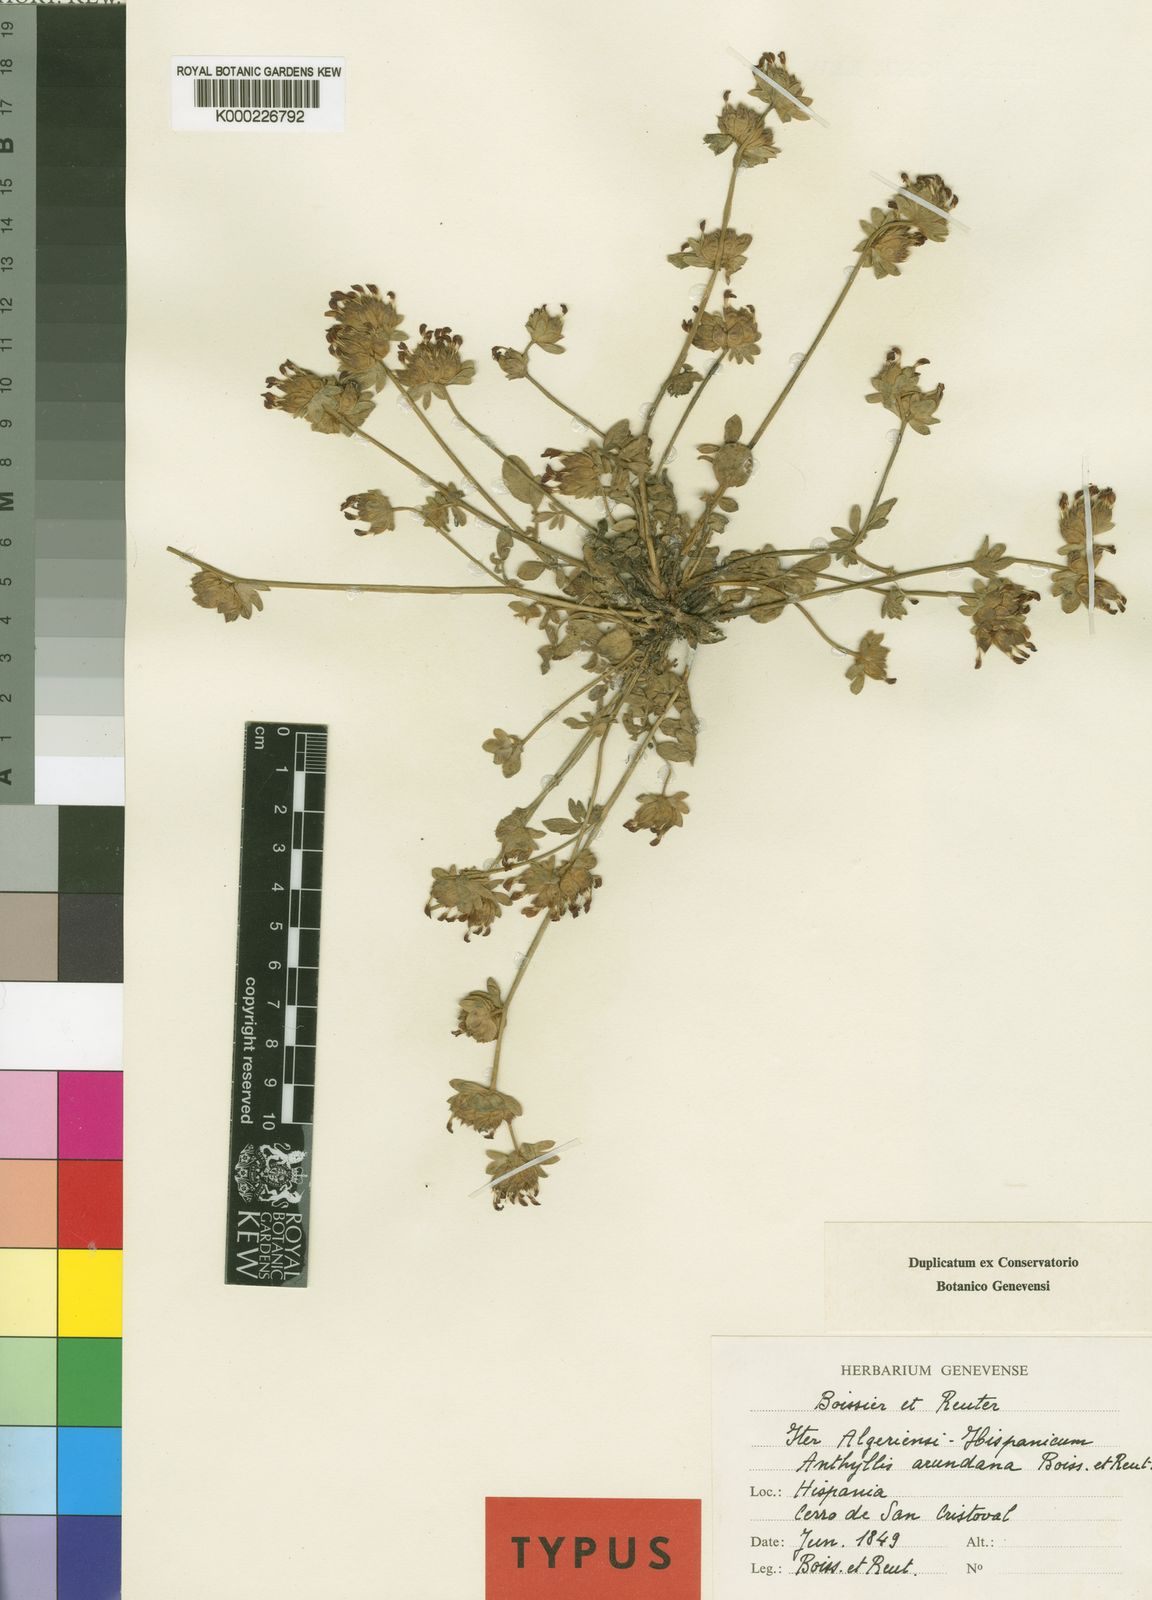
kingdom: Plantae
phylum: Tracheophyta
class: Magnoliopsida
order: Fabales
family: Fabaceae
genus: Anthyllis
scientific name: Anthyllis vulneraria
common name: Kidney vetch
